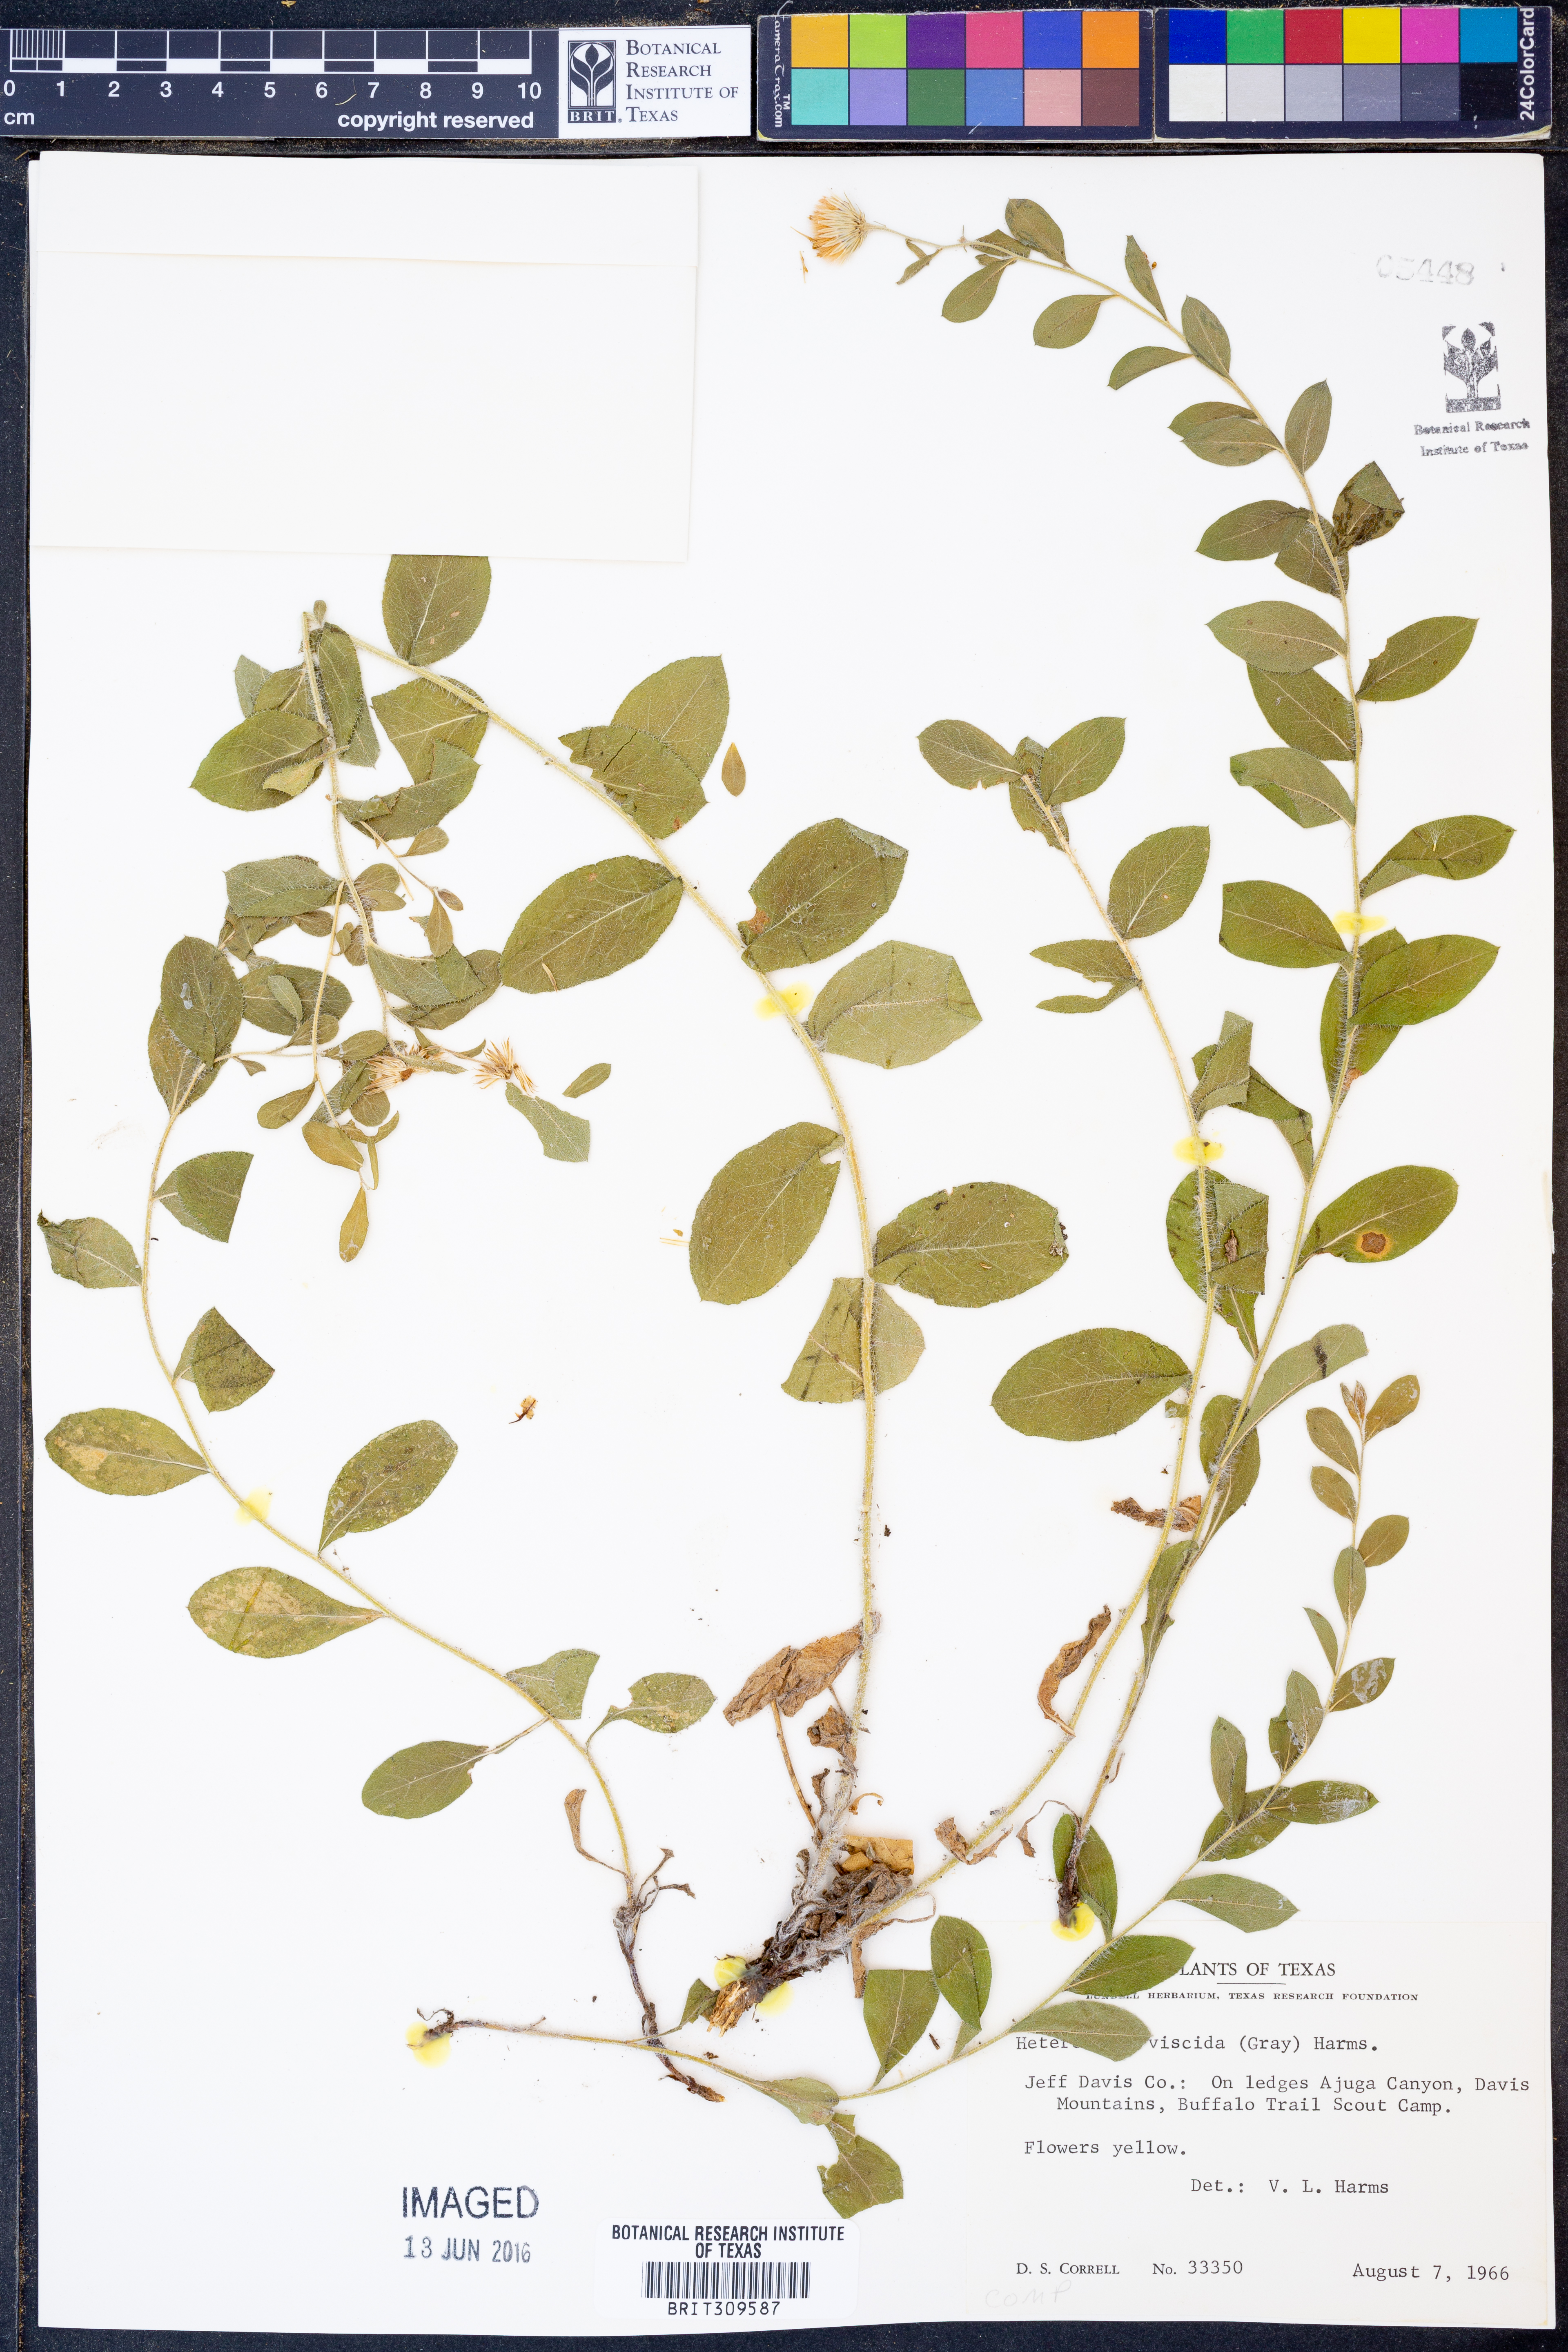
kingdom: Plantae
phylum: Tracheophyta
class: Magnoliopsida
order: Asterales
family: Asteraceae
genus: Heterotheca
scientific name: Heterotheca viscida
